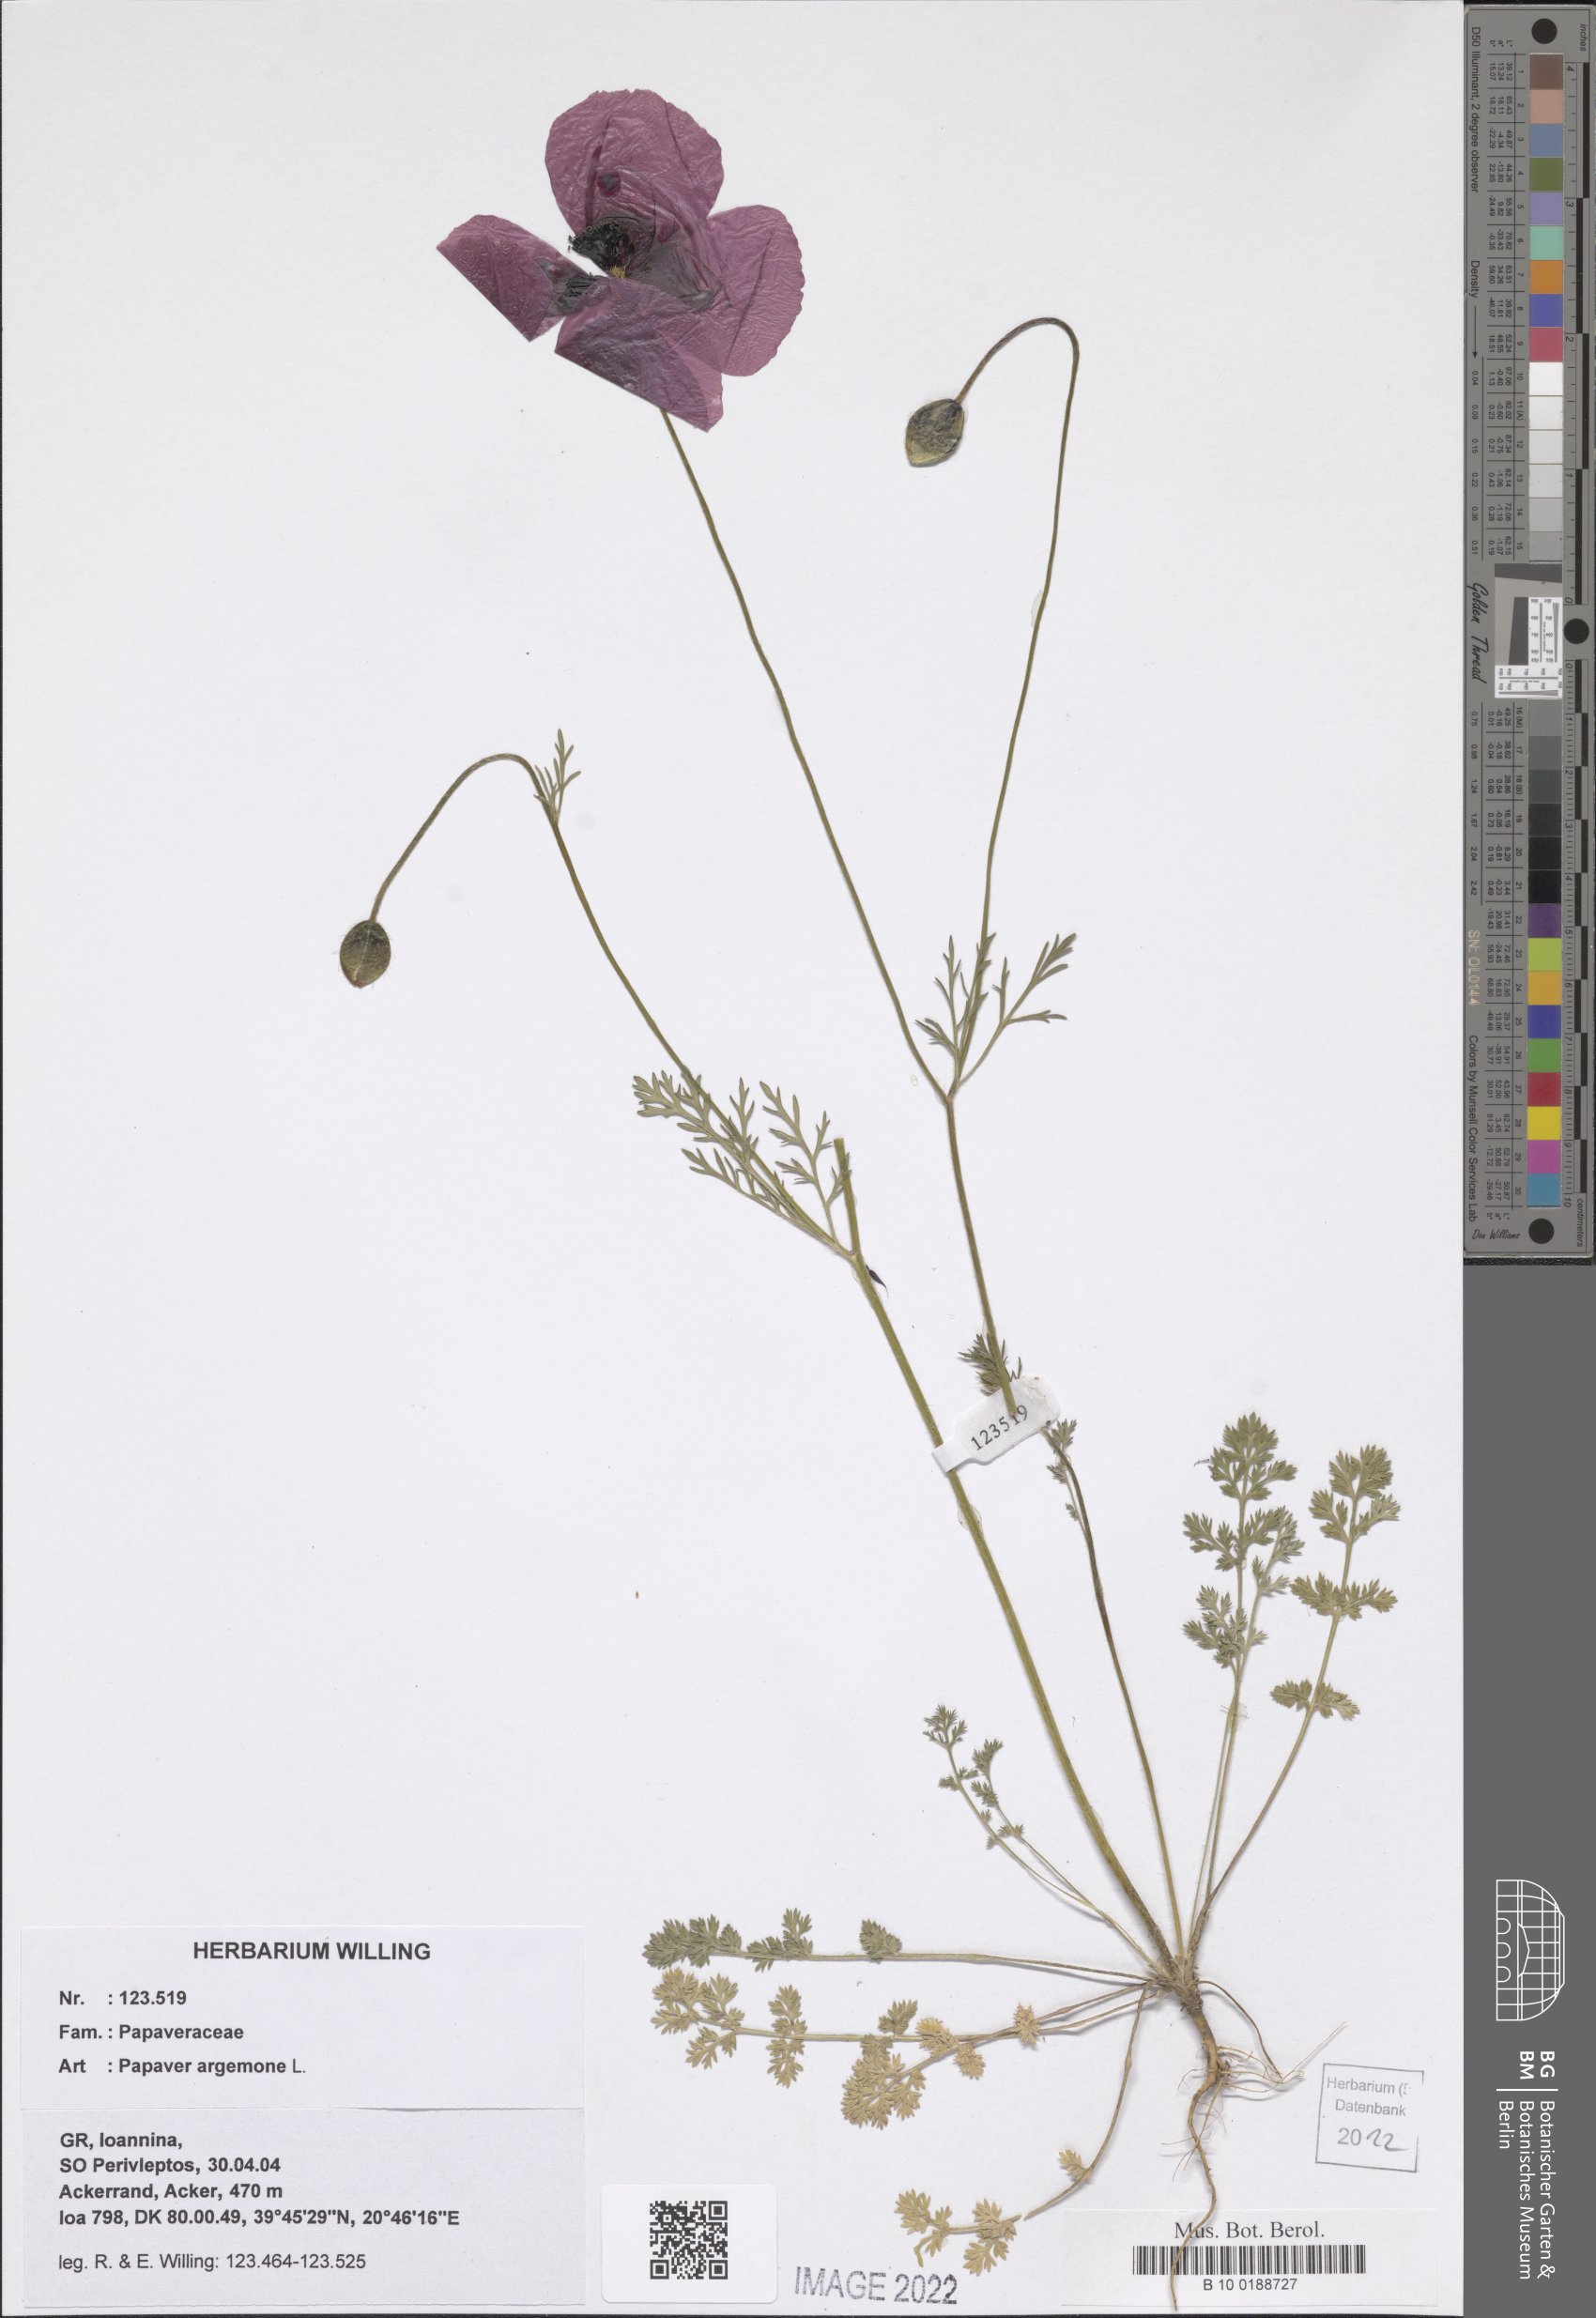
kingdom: Plantae
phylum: Tracheophyta
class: Magnoliopsida
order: Ranunculales
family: Papaveraceae
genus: Roemeria
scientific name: Roemeria argemone
